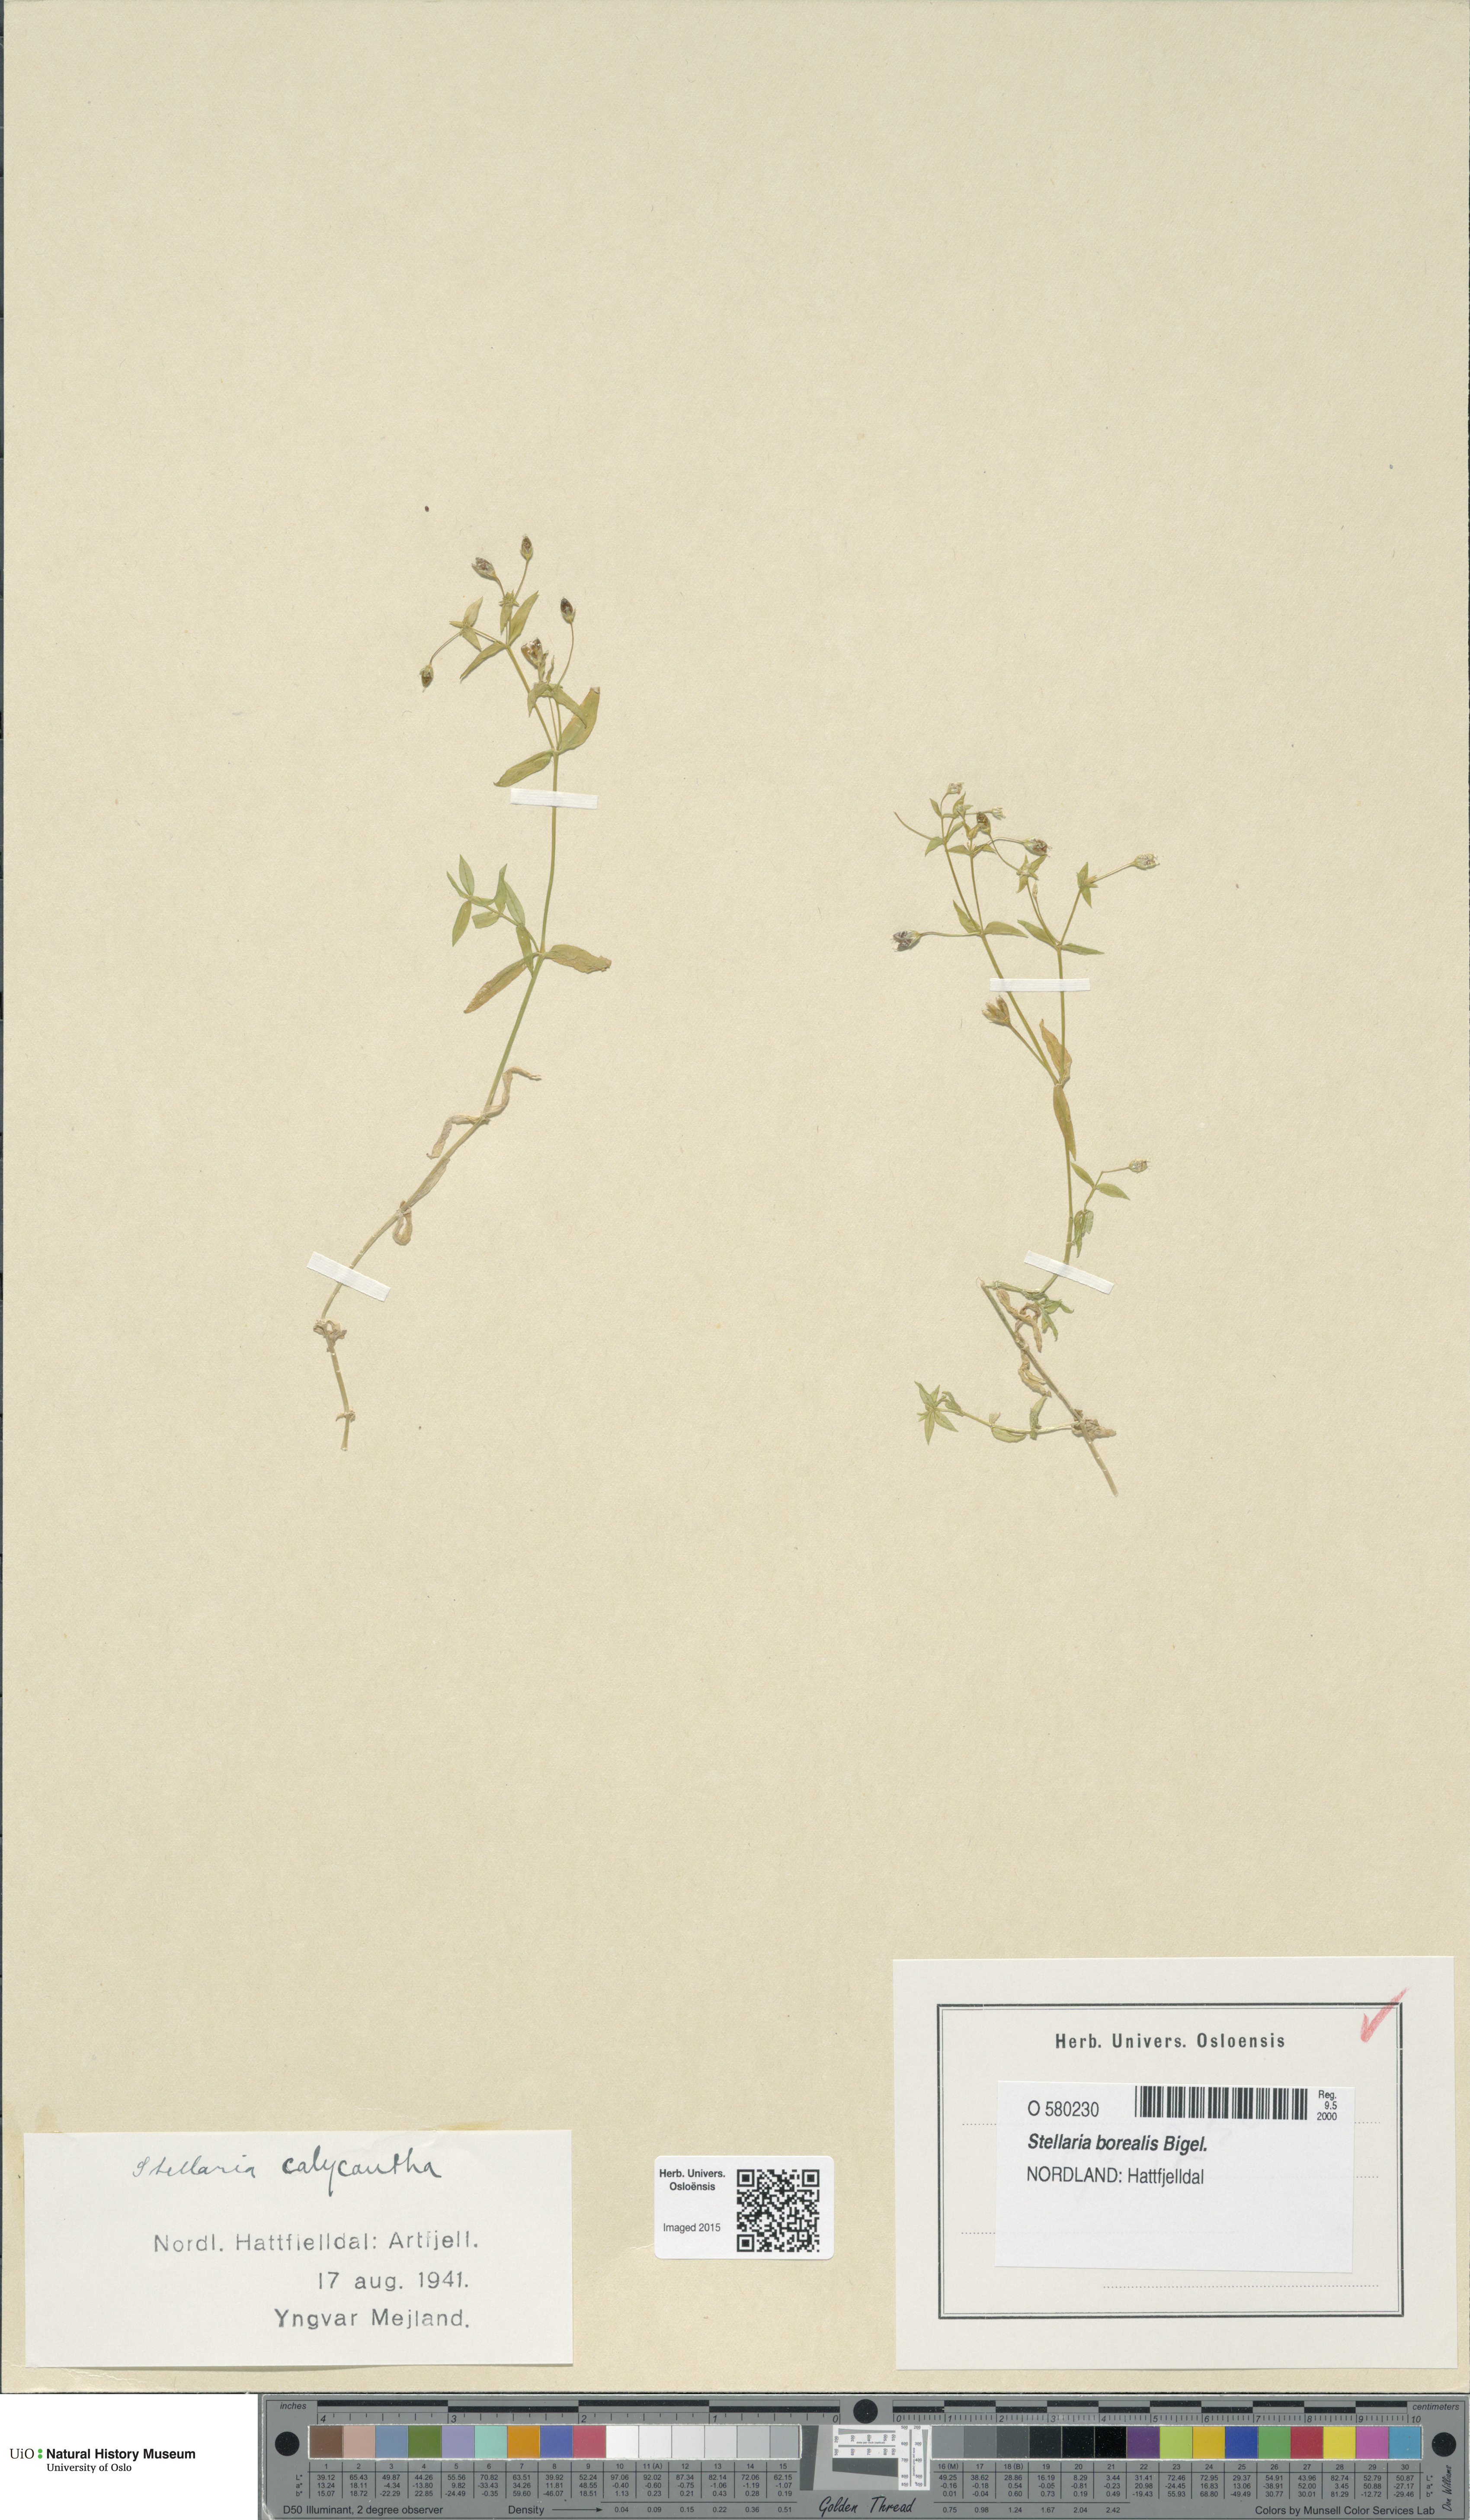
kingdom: Plantae
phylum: Tracheophyta
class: Magnoliopsida
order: Caryophyllales
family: Caryophyllaceae
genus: Stellaria
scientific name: Stellaria borealis
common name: Boreal starwort
